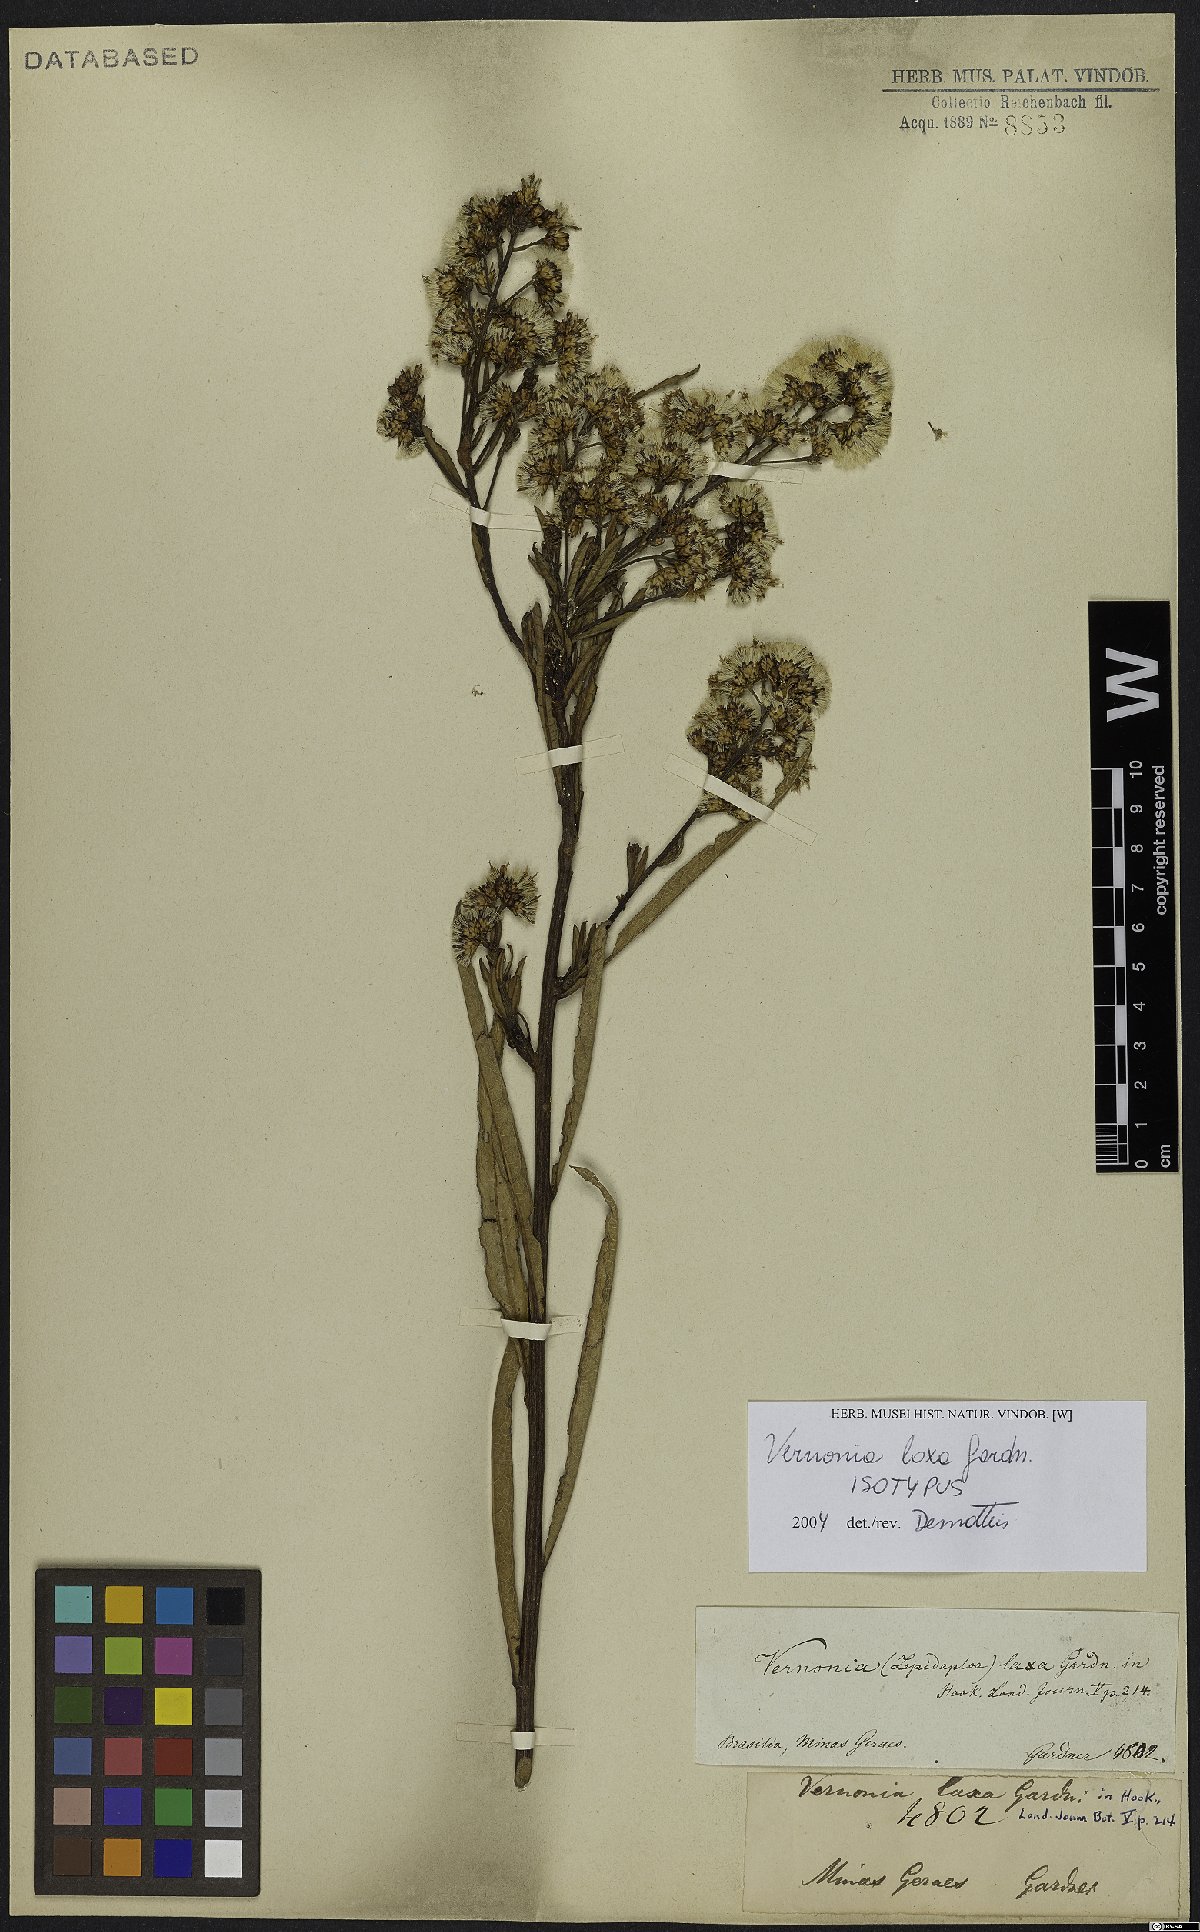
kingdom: Plantae
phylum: Tracheophyta
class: Magnoliopsida
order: Asterales
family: Asteraceae
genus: Vernonanthura
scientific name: Vernonanthura laxa
